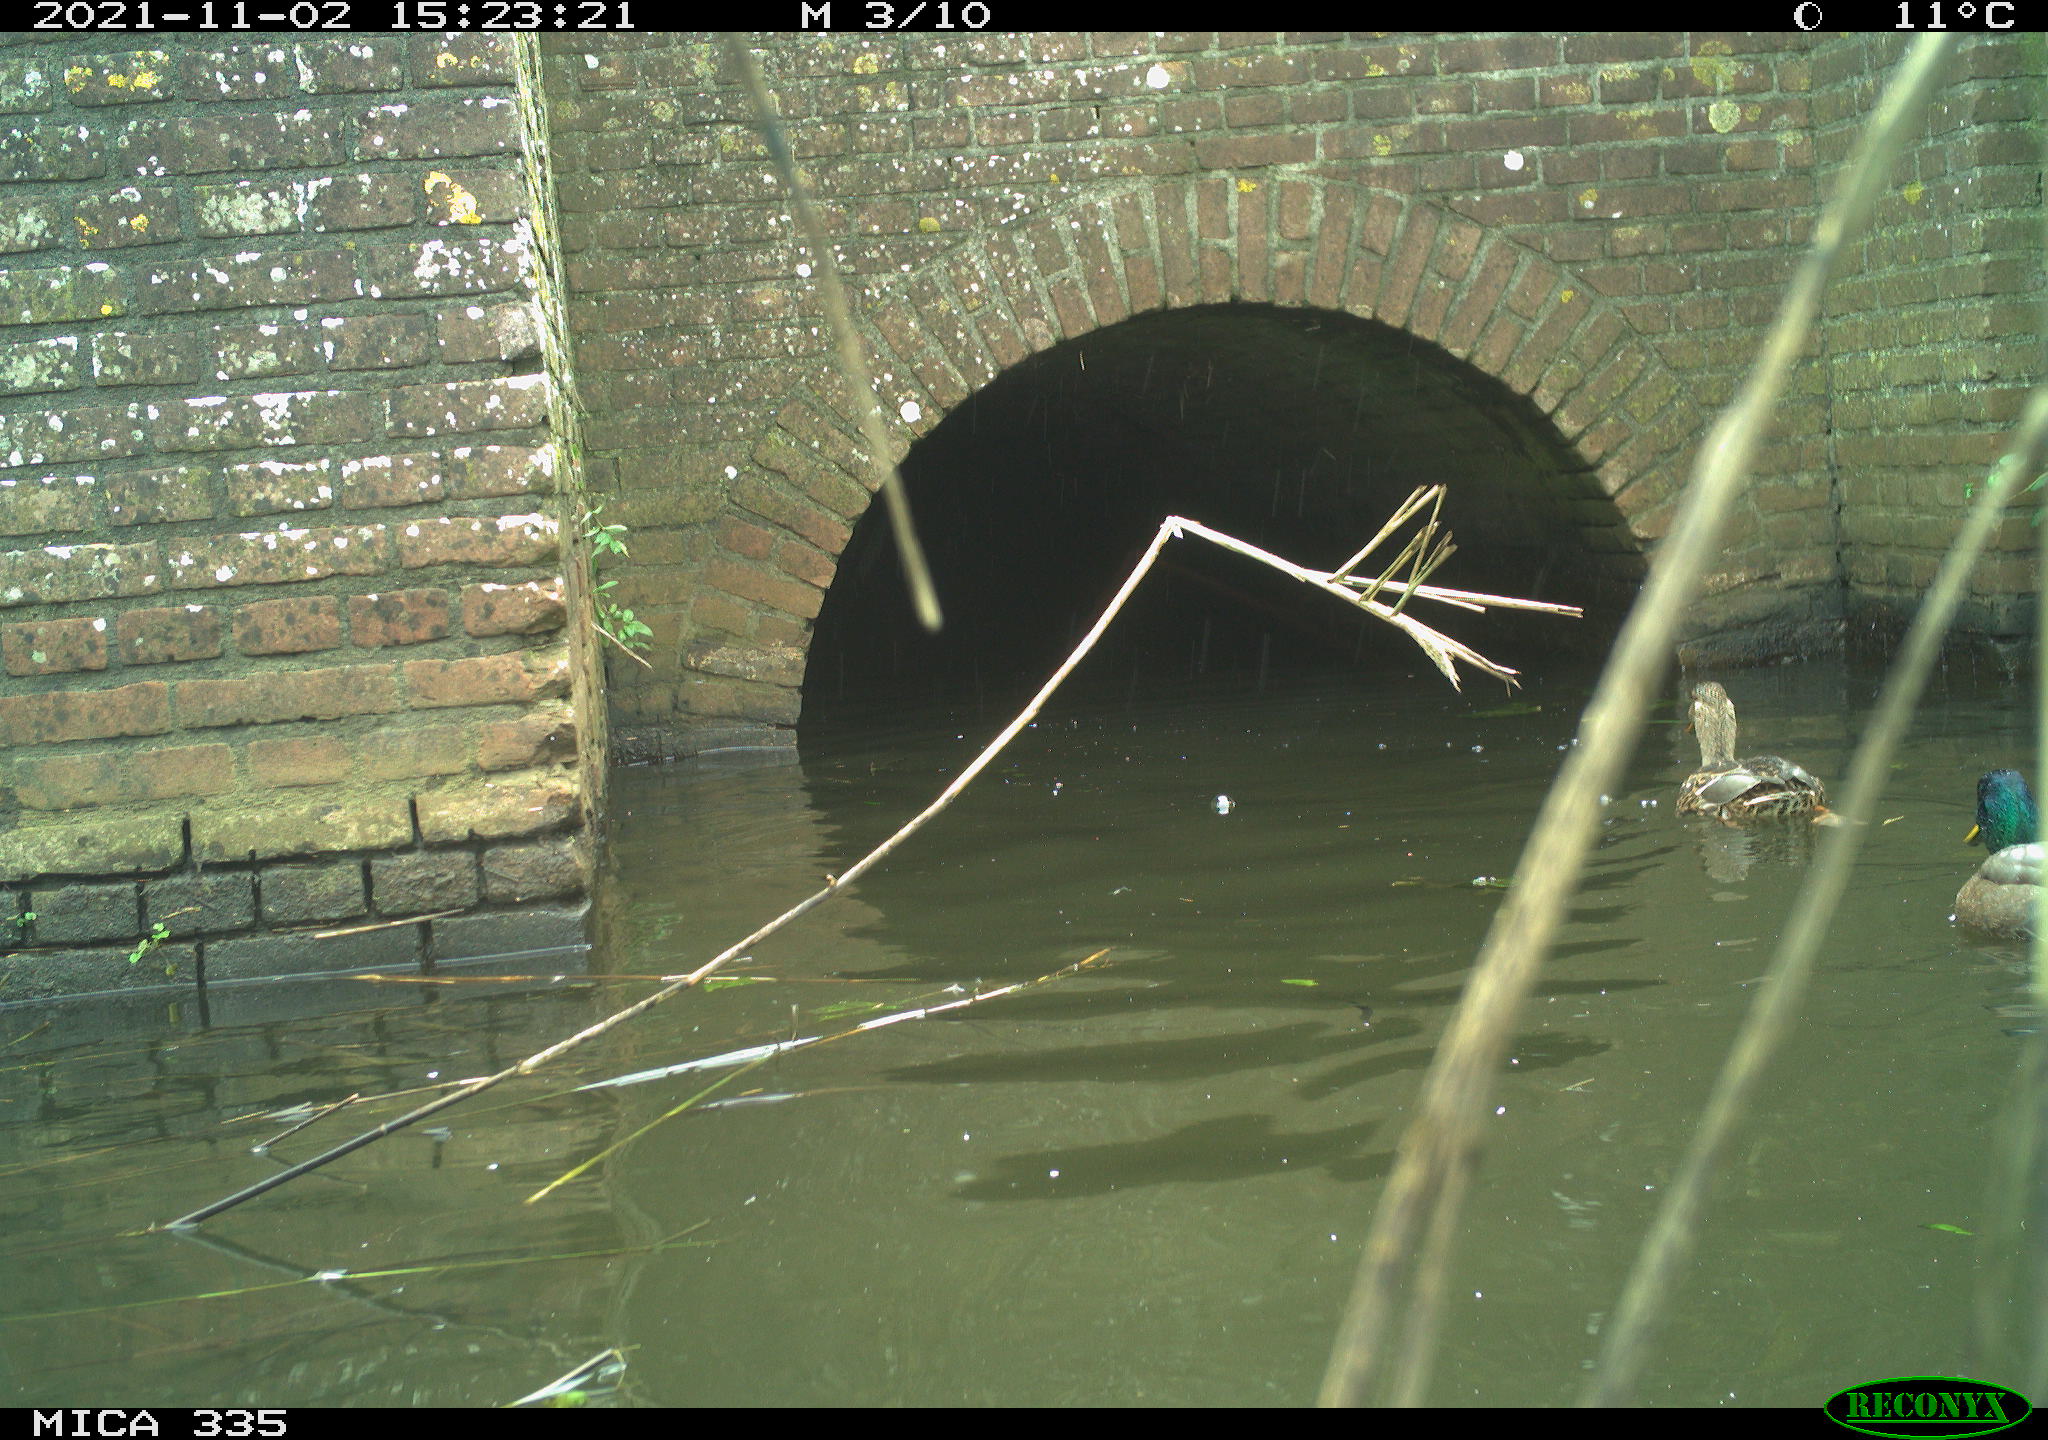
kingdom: Animalia
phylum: Chordata
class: Aves
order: Anseriformes
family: Anatidae
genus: Anas
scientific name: Anas platyrhynchos
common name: Mallard
